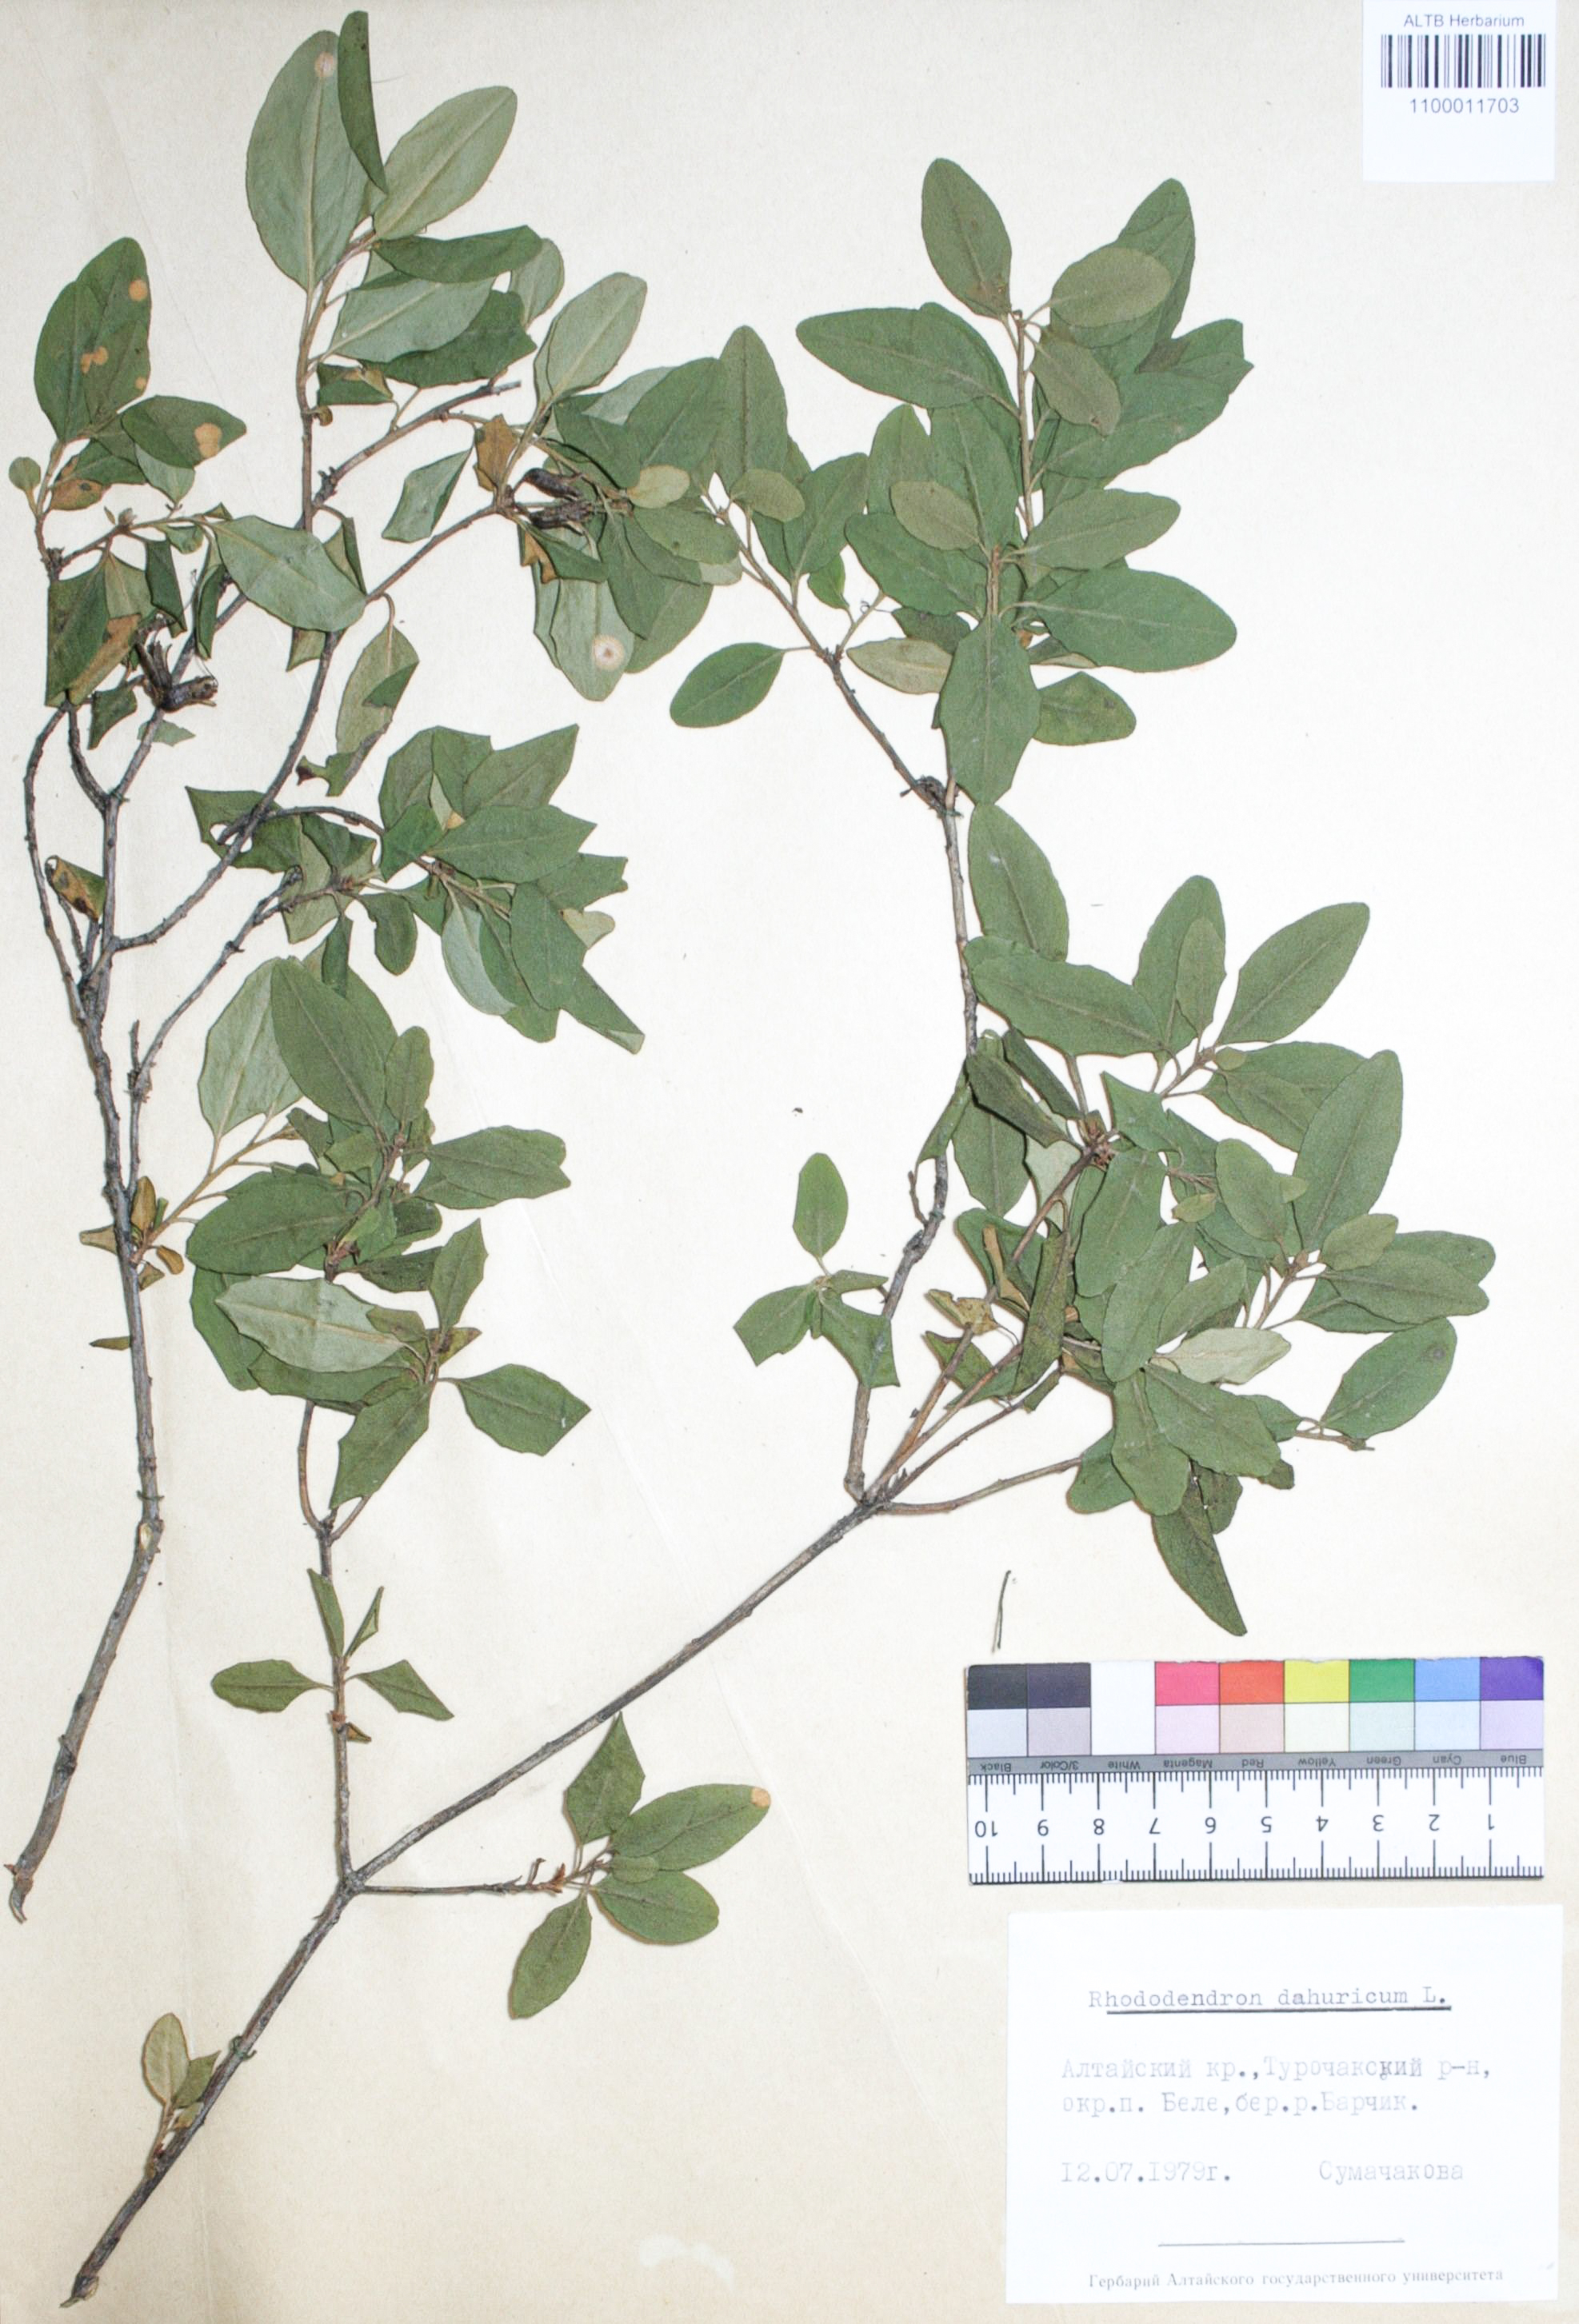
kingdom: Plantae
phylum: Tracheophyta
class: Magnoliopsida
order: Ericales
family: Ericaceae
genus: Rhododendron
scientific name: Rhododendron dahuricum
